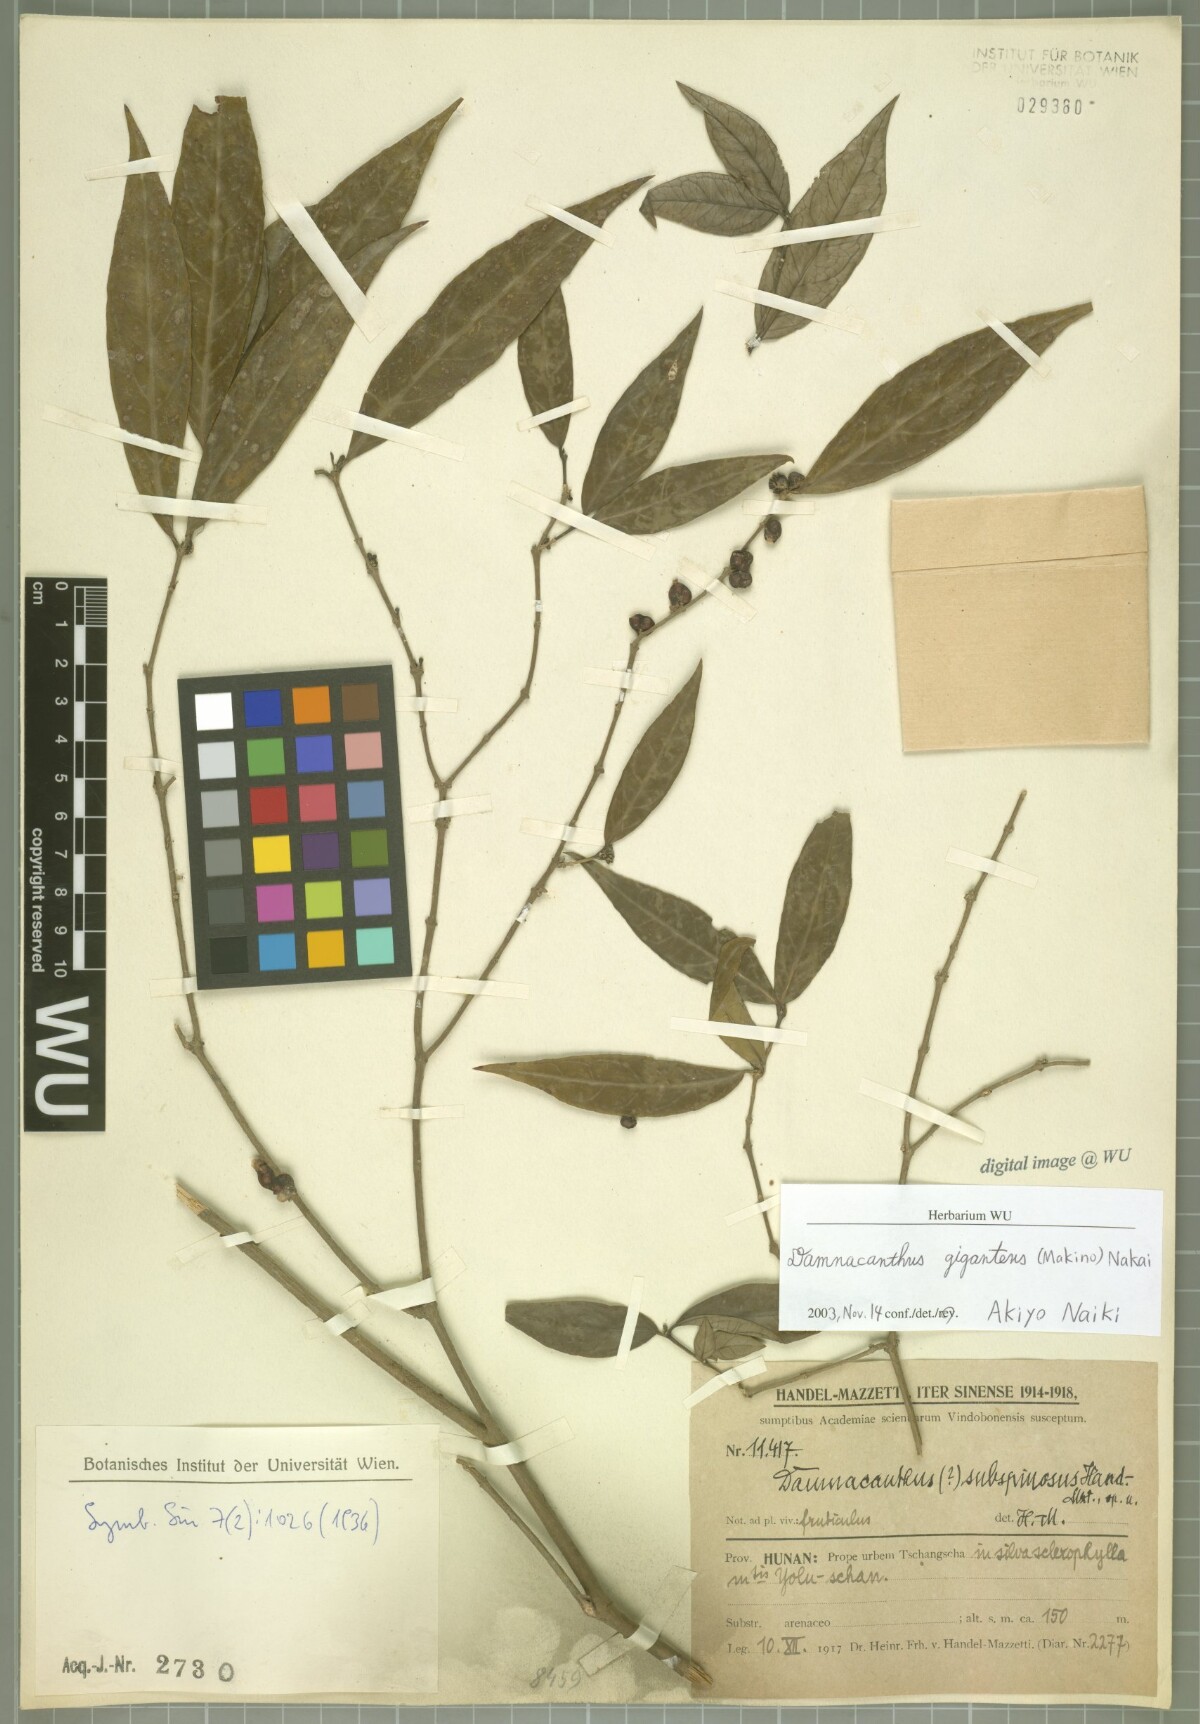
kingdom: Plantae
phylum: Tracheophyta
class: Magnoliopsida
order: Gentianales
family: Rubiaceae
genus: Damnacanthus
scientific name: Damnacanthus giganteus
